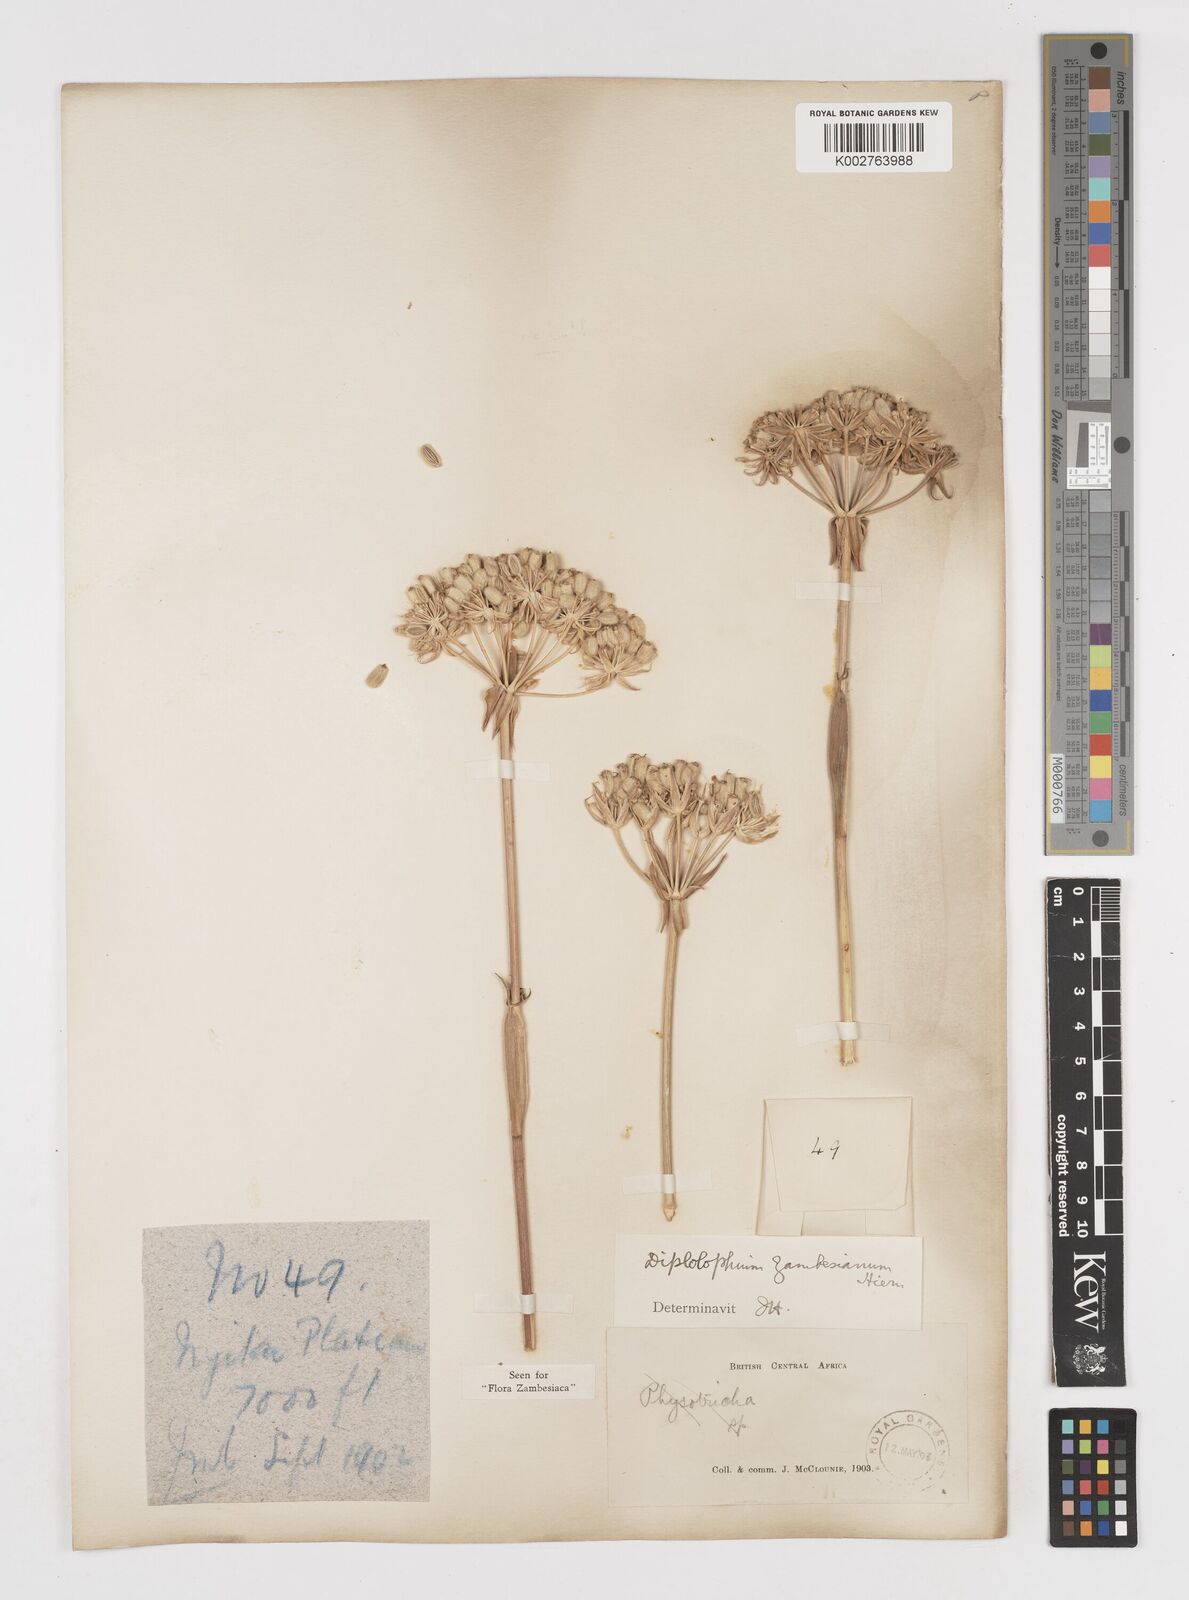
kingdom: Plantae
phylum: Tracheophyta
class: Magnoliopsida
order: Apiales
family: Apiaceae
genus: Diplolophium
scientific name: Diplolophium zambesianum
